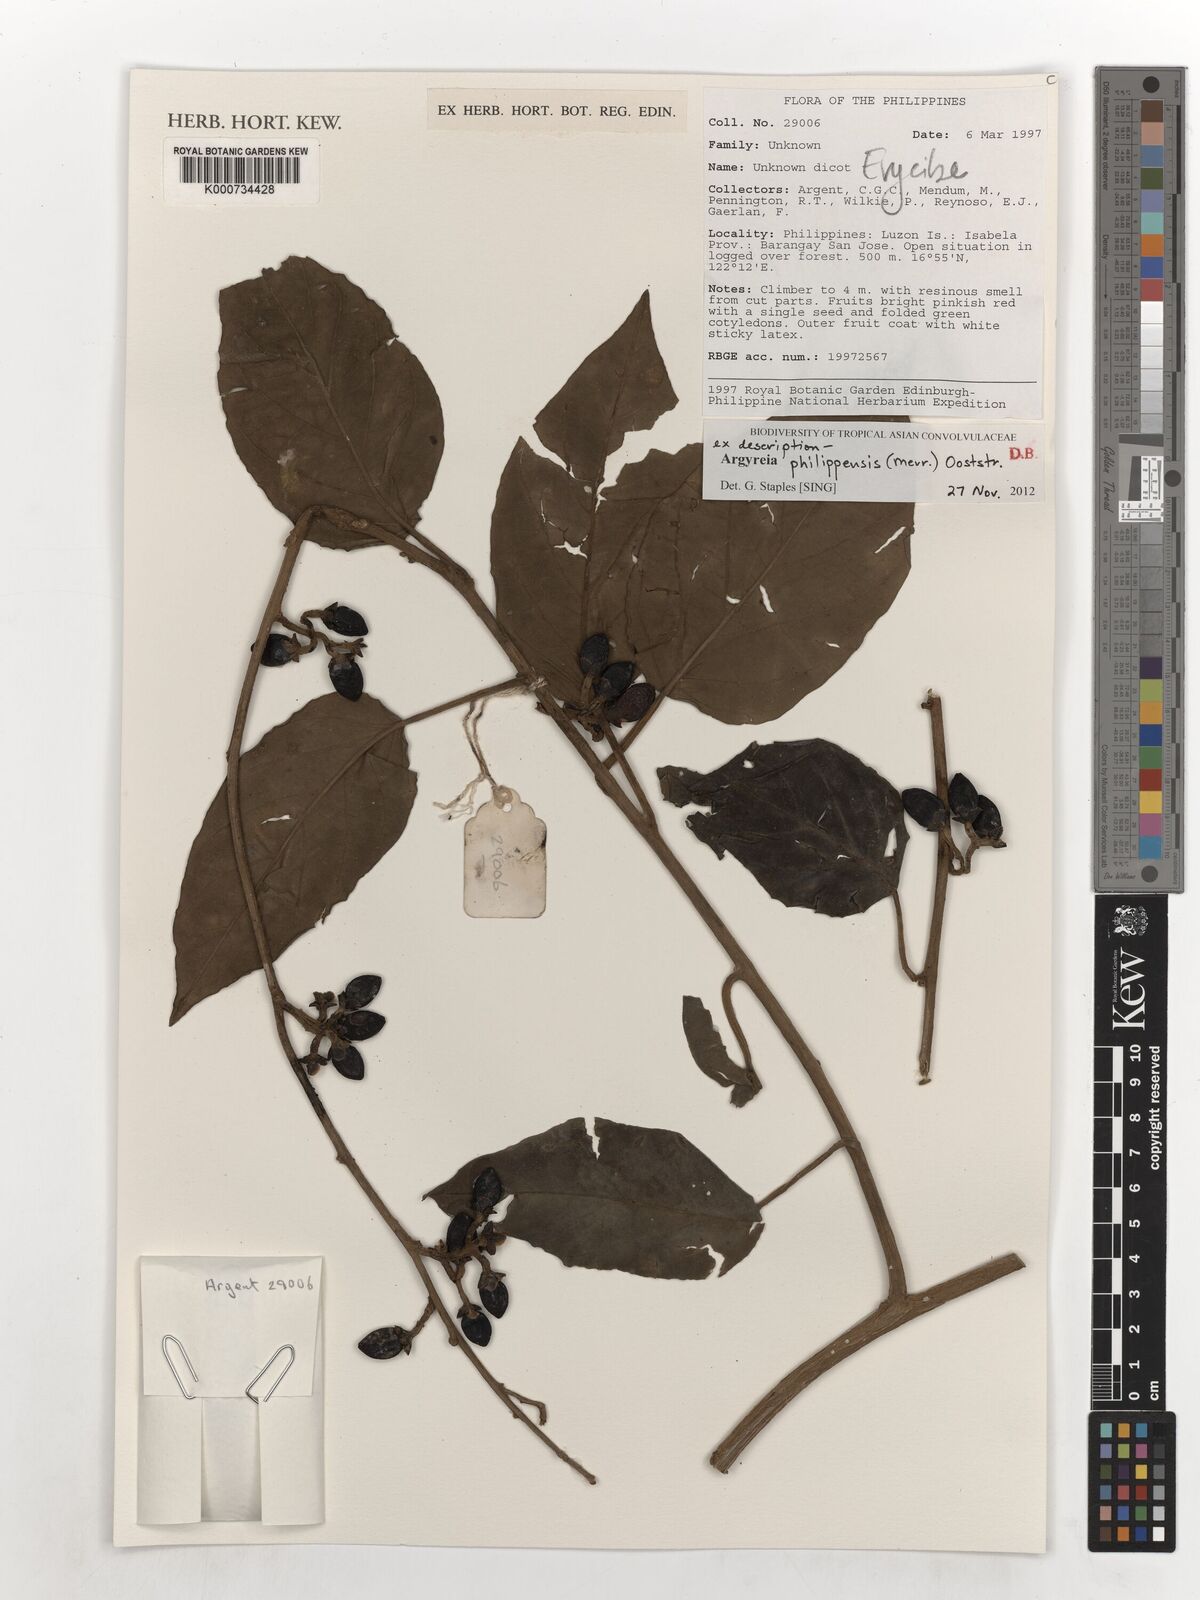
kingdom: Plantae
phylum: Tracheophyta
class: Magnoliopsida
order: Solanales
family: Convolvulaceae
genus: Argyreia
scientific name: Argyreia
